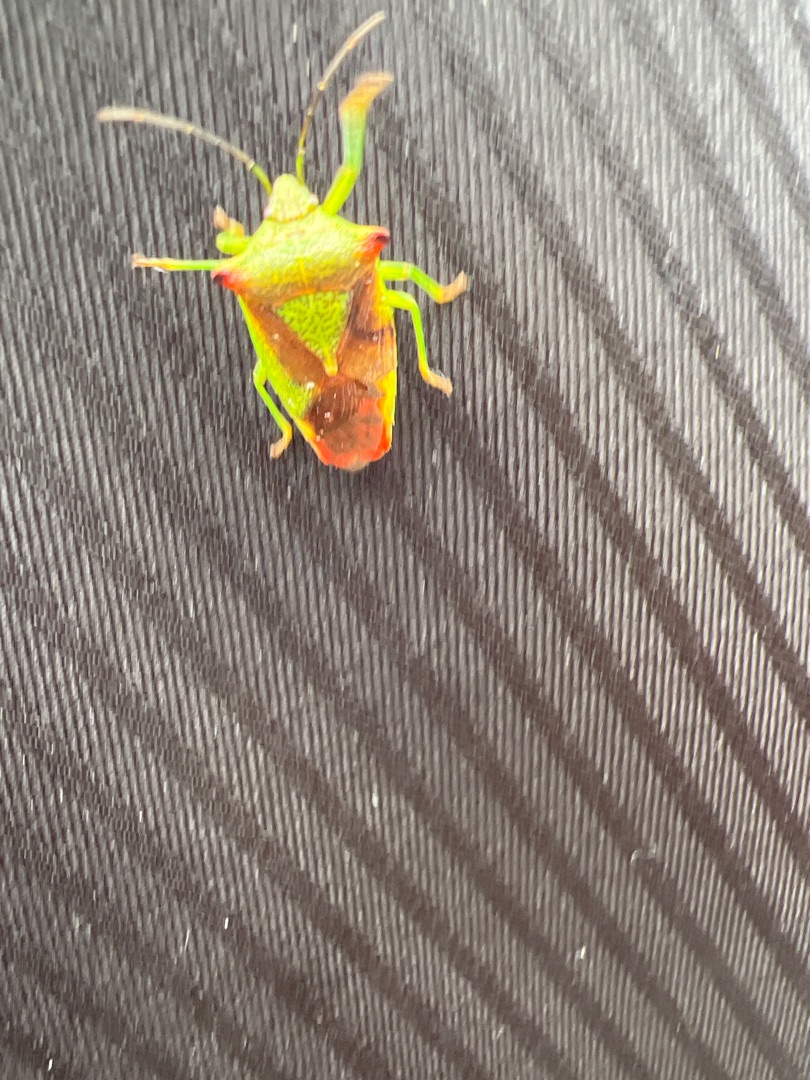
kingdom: Animalia
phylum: Arthropoda
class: Insecta
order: Hemiptera
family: Acanthosomatidae
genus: Acanthosoma
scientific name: Acanthosoma haemorrhoidale
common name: Stor løvtæge
